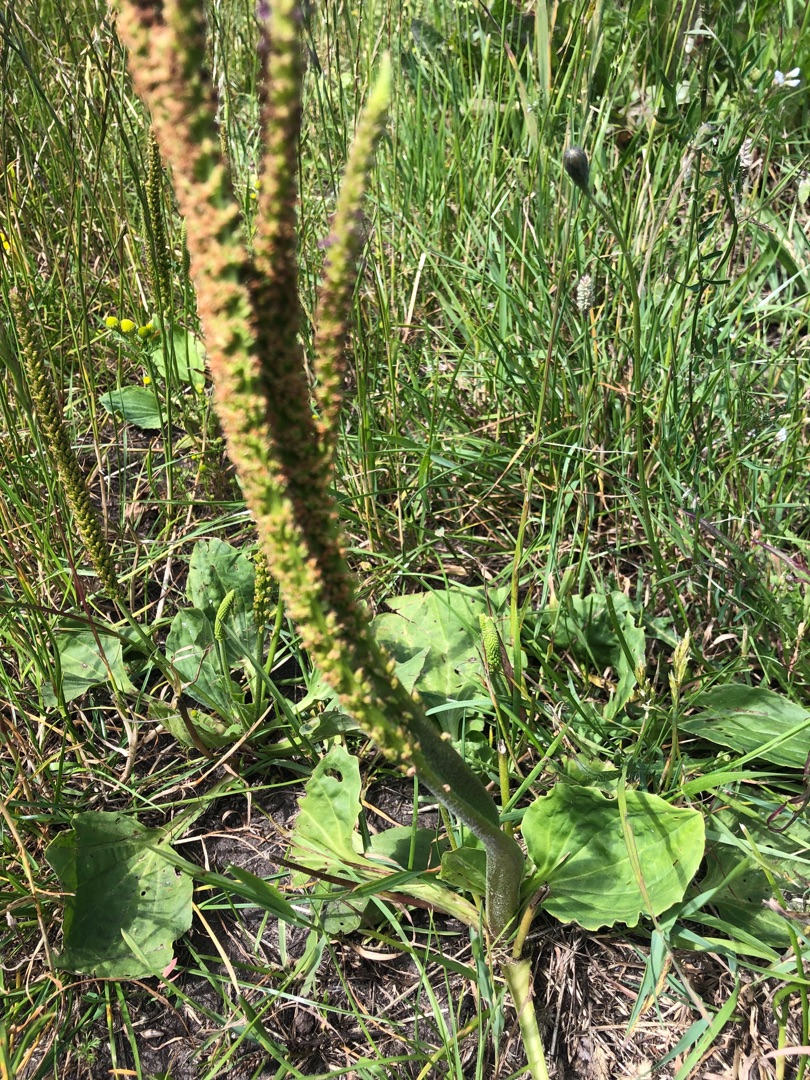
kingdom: Plantae
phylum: Tracheophyta
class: Magnoliopsida
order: Lamiales
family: Plantaginaceae
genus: Plantago
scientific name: Plantago major
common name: Glat vejbred
